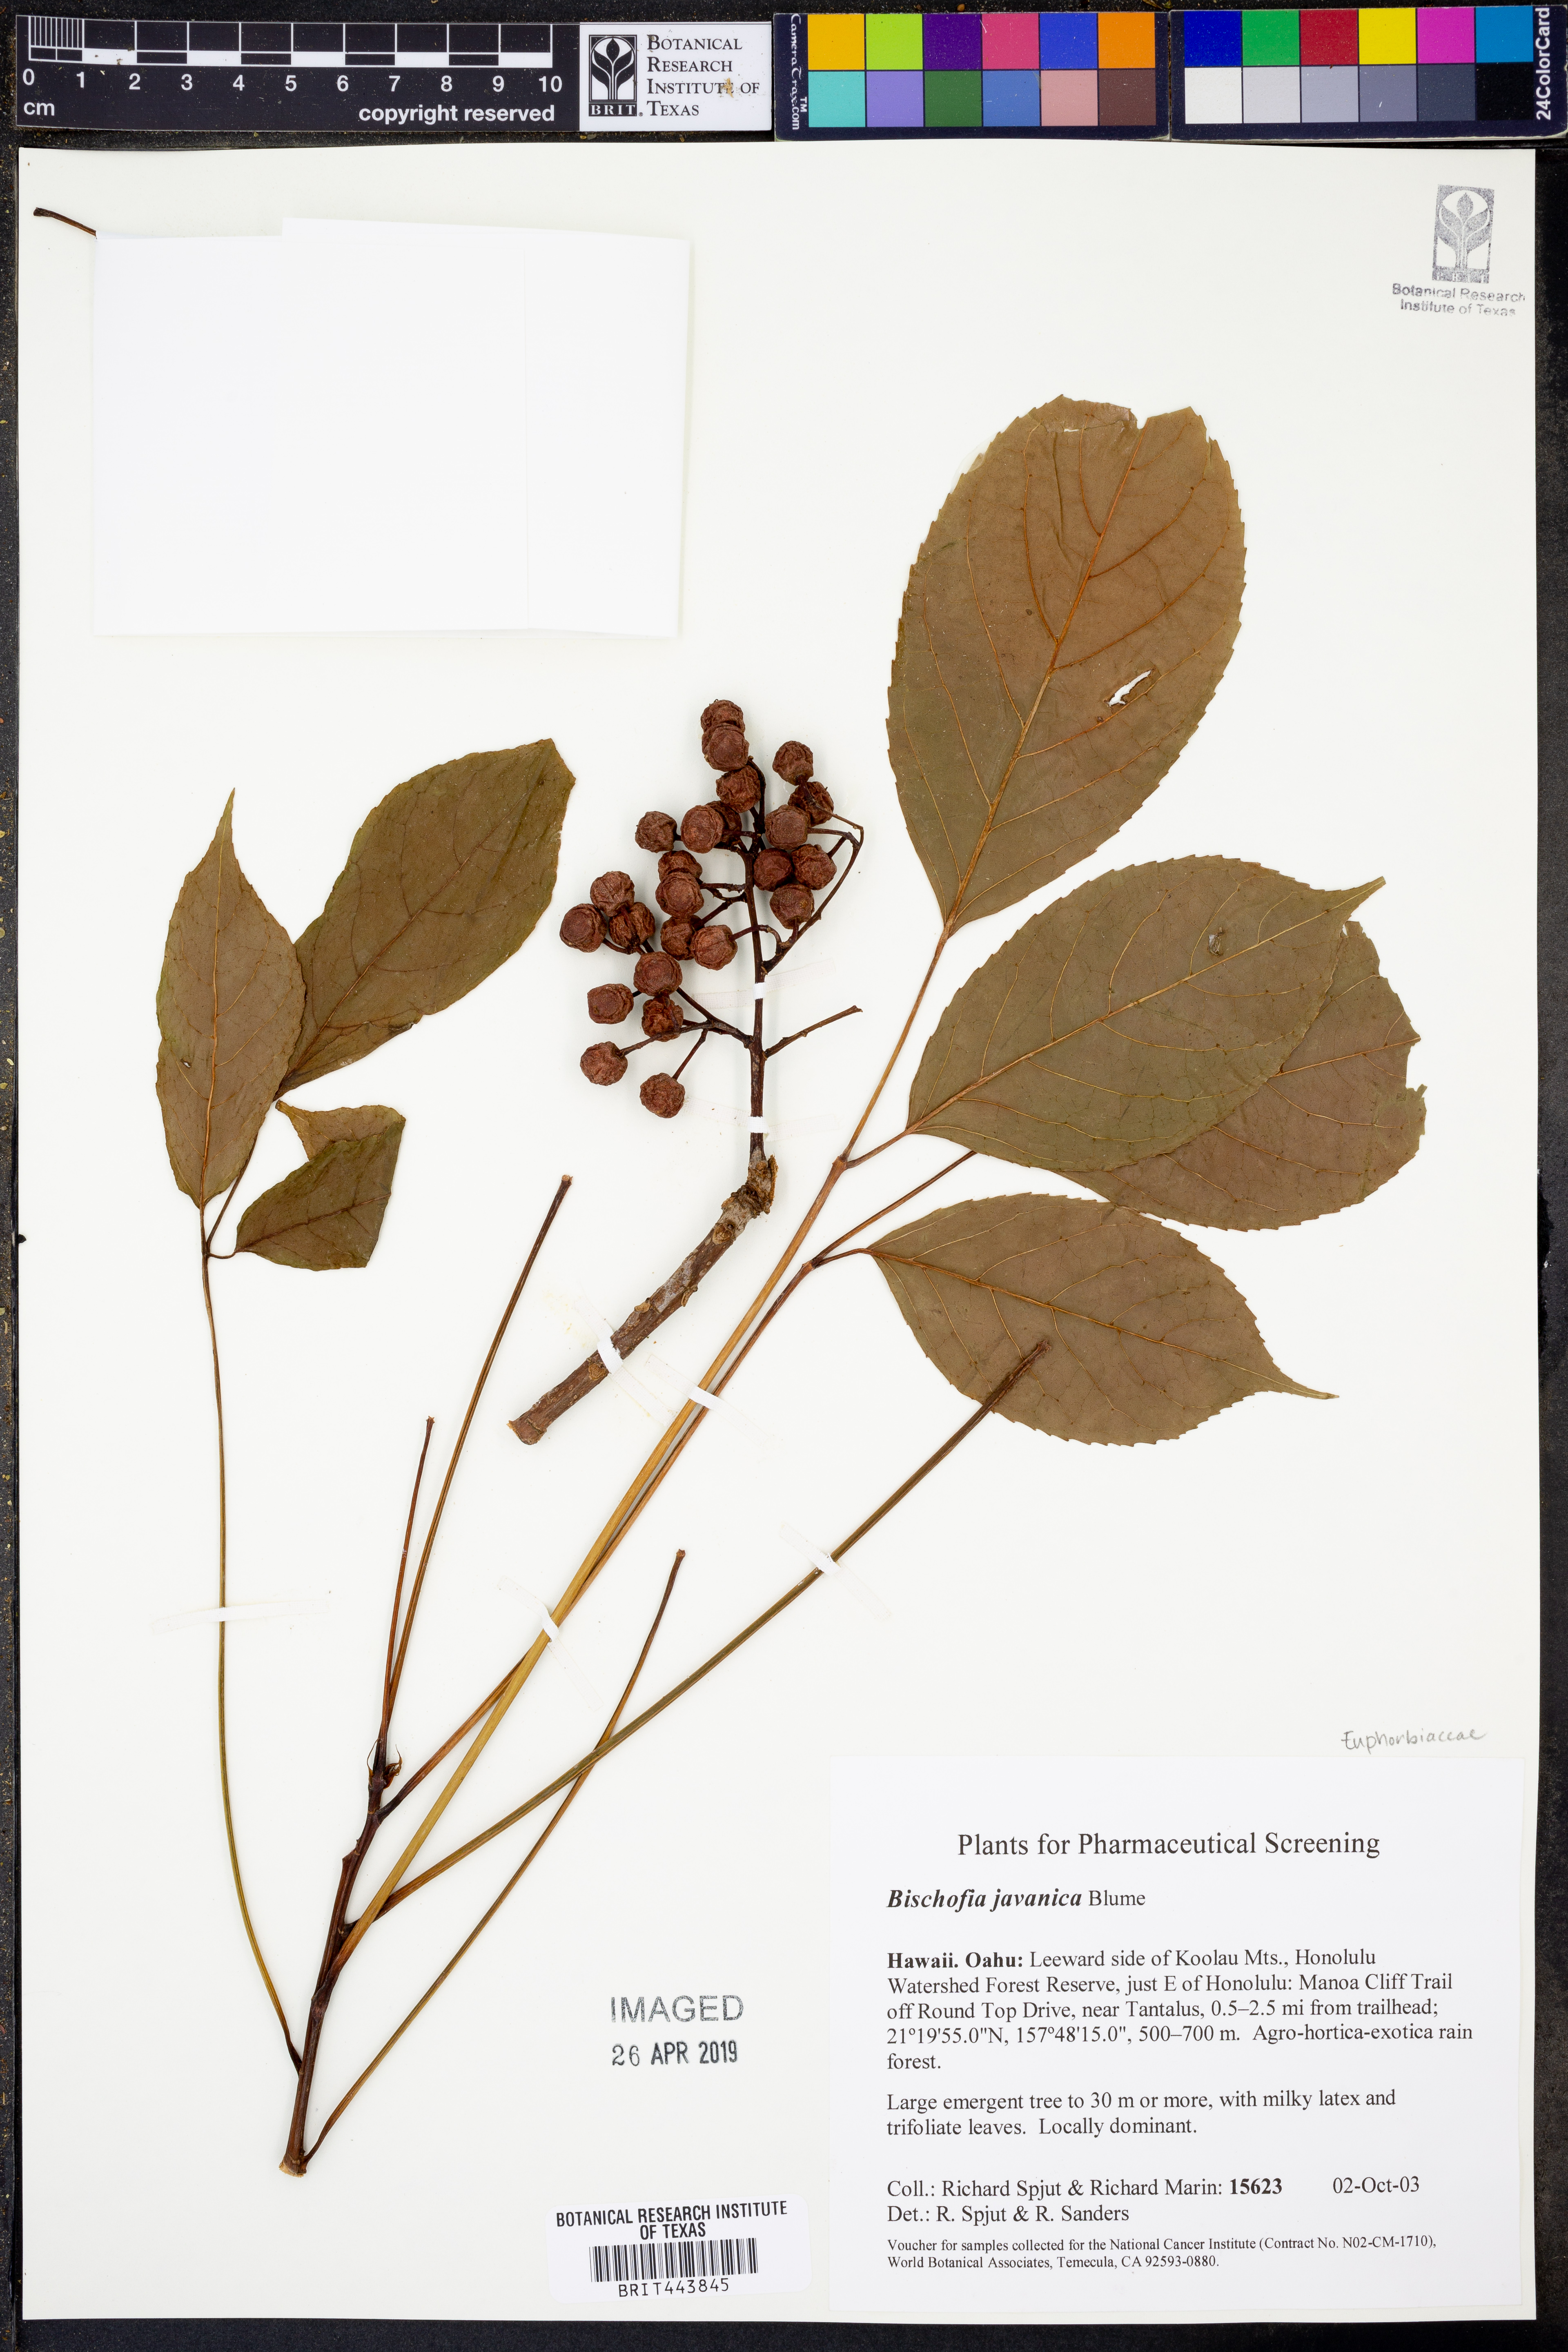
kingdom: Plantae
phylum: Tracheophyta
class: Magnoliopsida
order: Malpighiales
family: Phyllanthaceae
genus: Bischofia
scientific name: Bischofia javanica
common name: Javanese bishopwood
